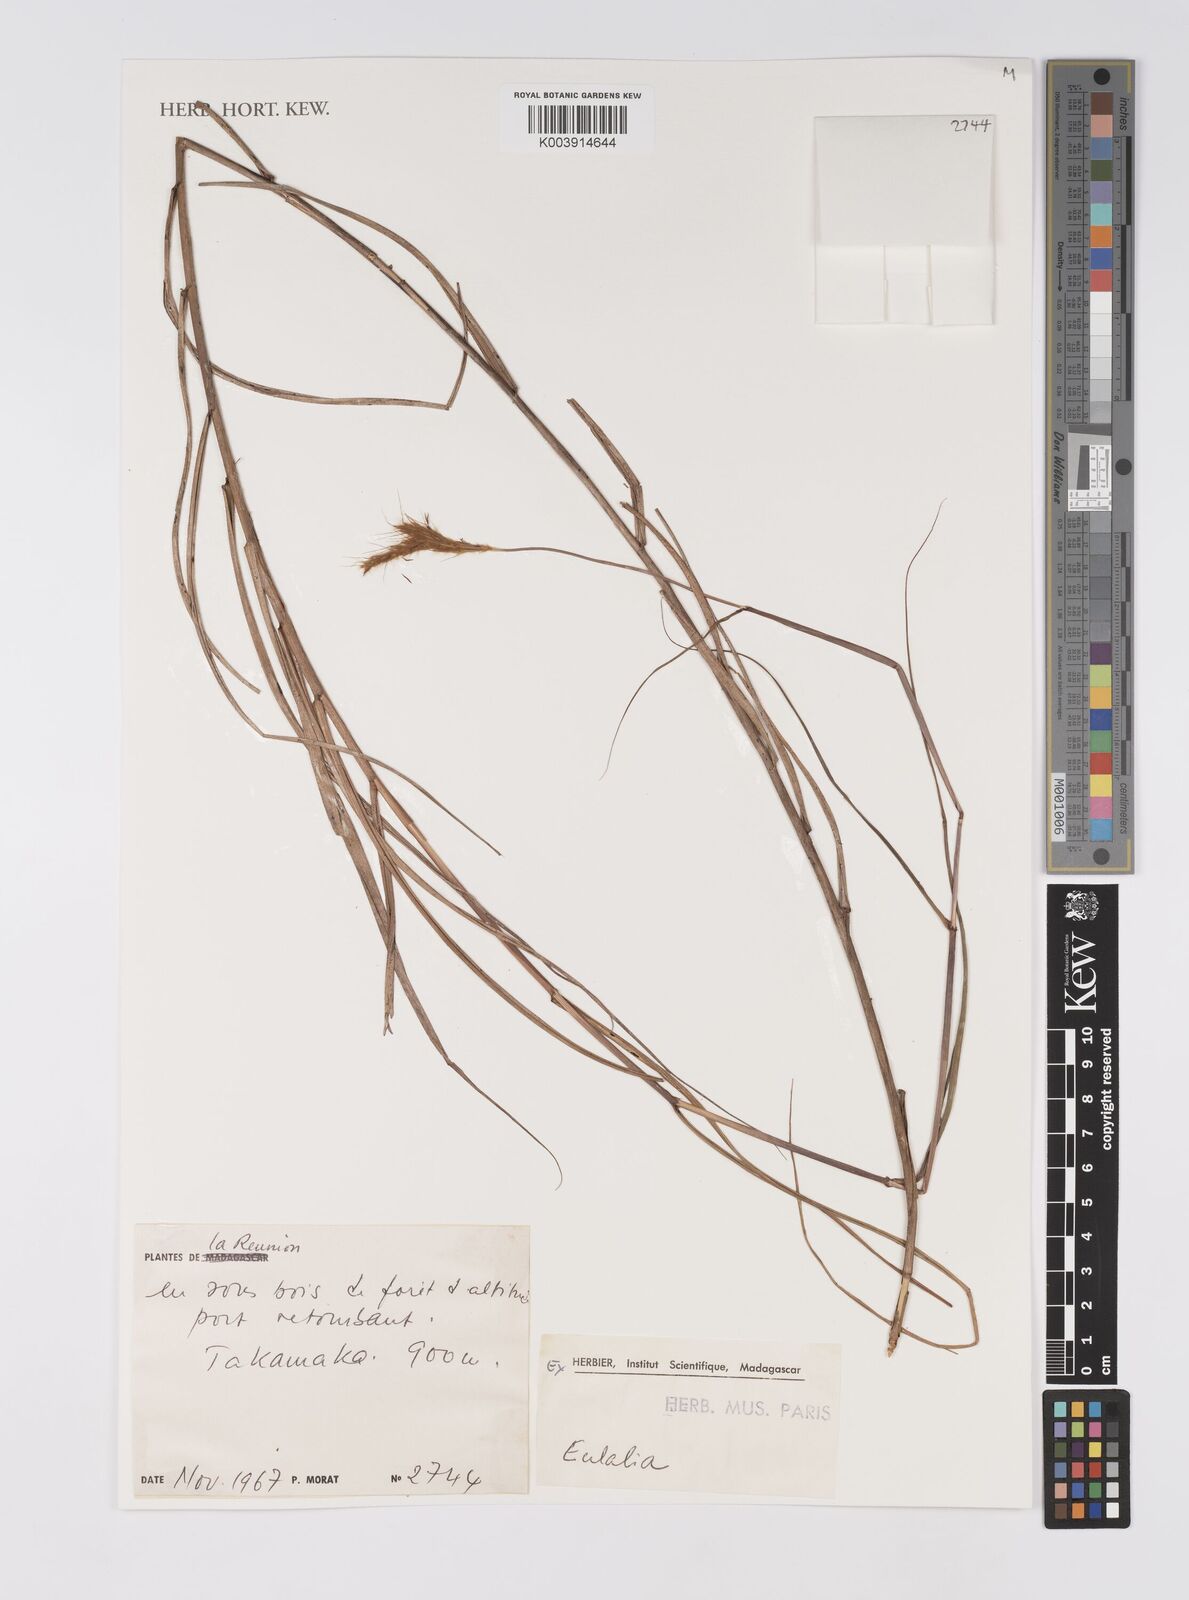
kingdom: Plantae
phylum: Tracheophyta
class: Liliopsida
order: Poales
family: Poaceae
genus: Eulalia
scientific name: Eulalia aurea
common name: Silky browntop
